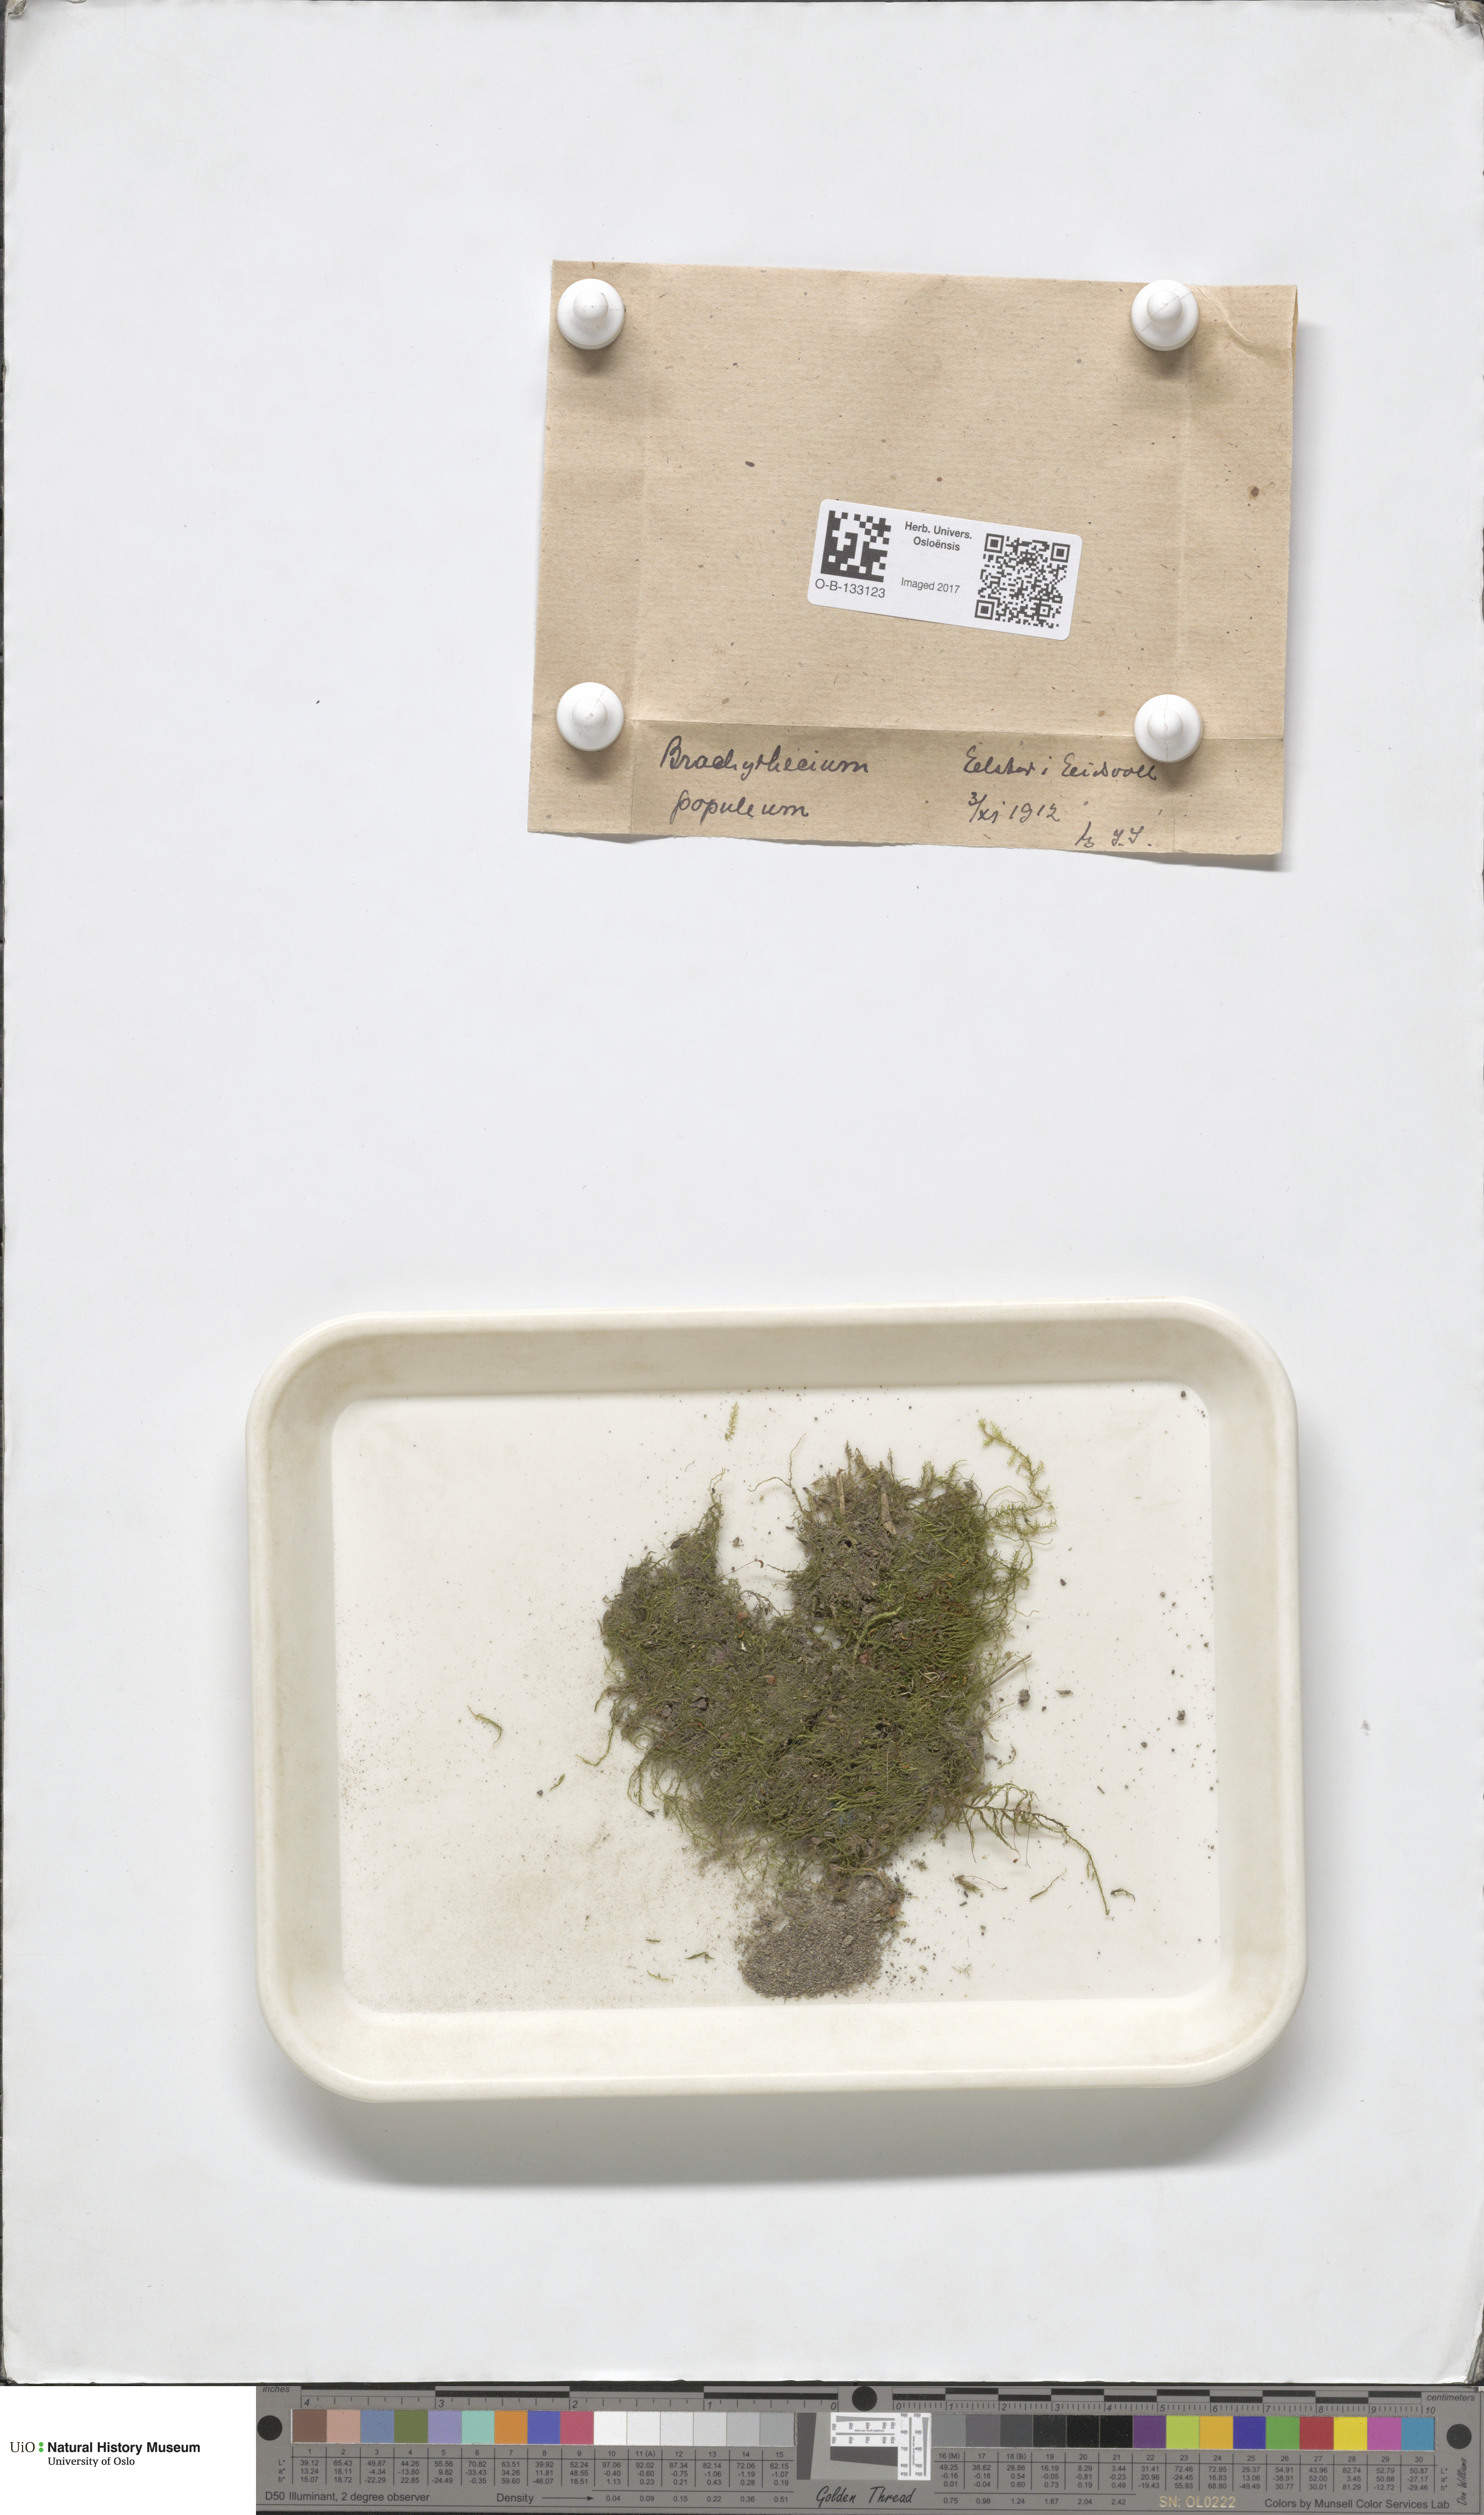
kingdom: Plantae
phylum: Bryophyta
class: Bryopsida
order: Hypnales
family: Brachytheciaceae
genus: Sciuro-hypnum
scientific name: Sciuro-hypnum plumosum
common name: Rusty feather-moss
